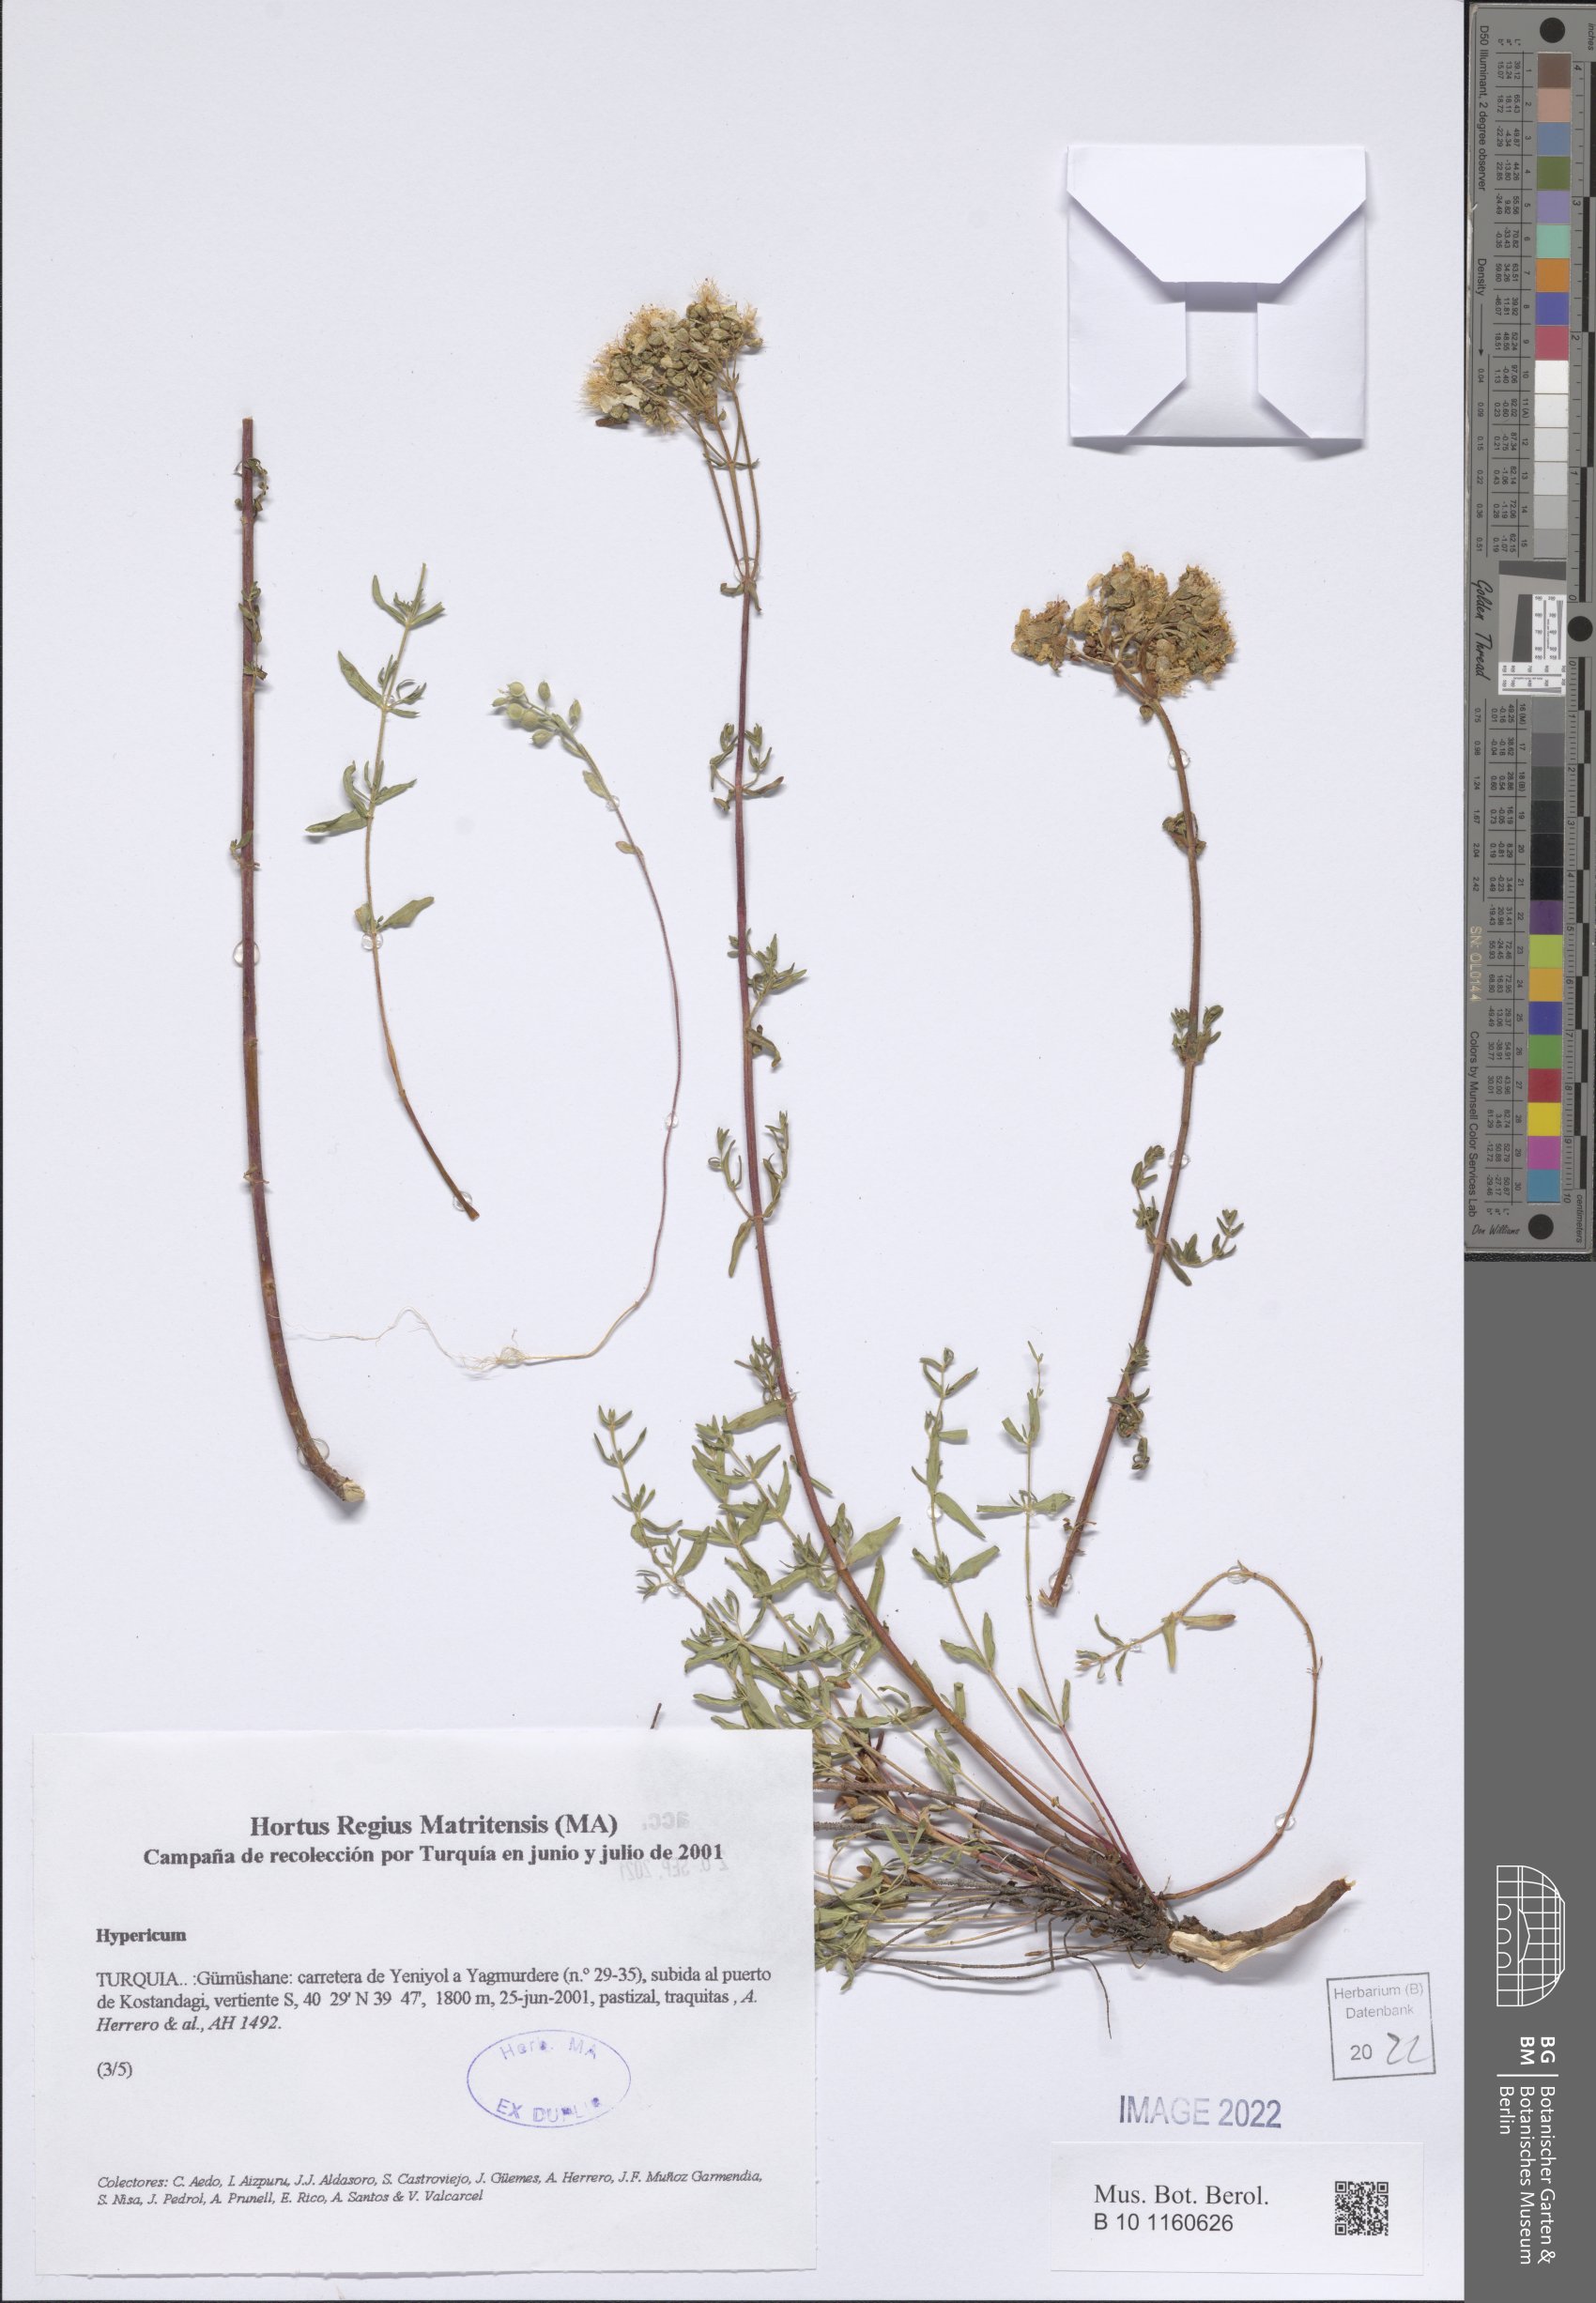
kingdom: Plantae
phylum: Tracheophyta
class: Magnoliopsida
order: Malpighiales
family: Hypericaceae
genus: Hypericum
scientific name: Hypericum
